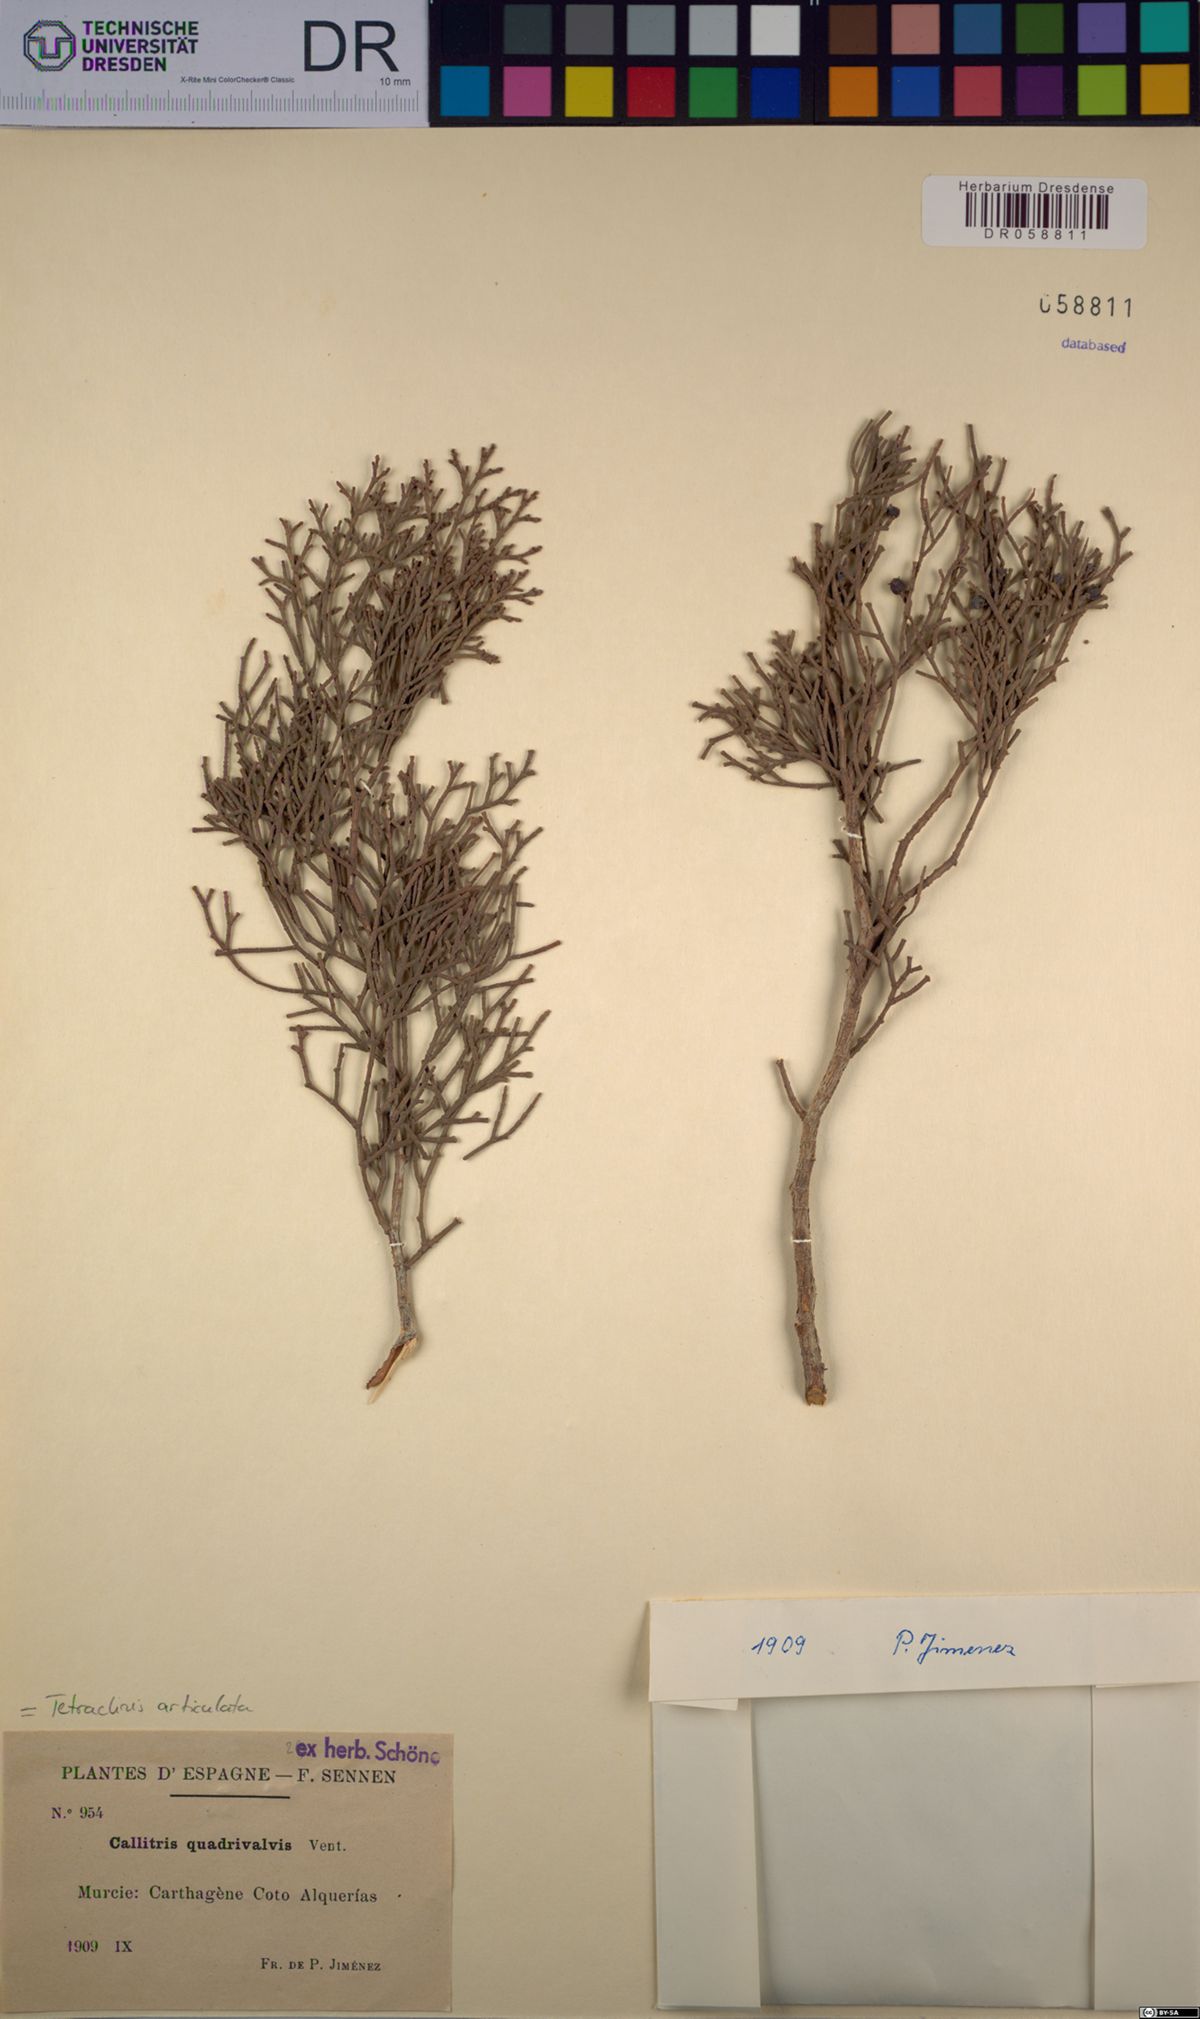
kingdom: Plantae
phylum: Tracheophyta
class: Pinopsida
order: Pinales
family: Cupressaceae
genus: Tetraclinis
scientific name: Tetraclinis articulata
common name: Sandarac
